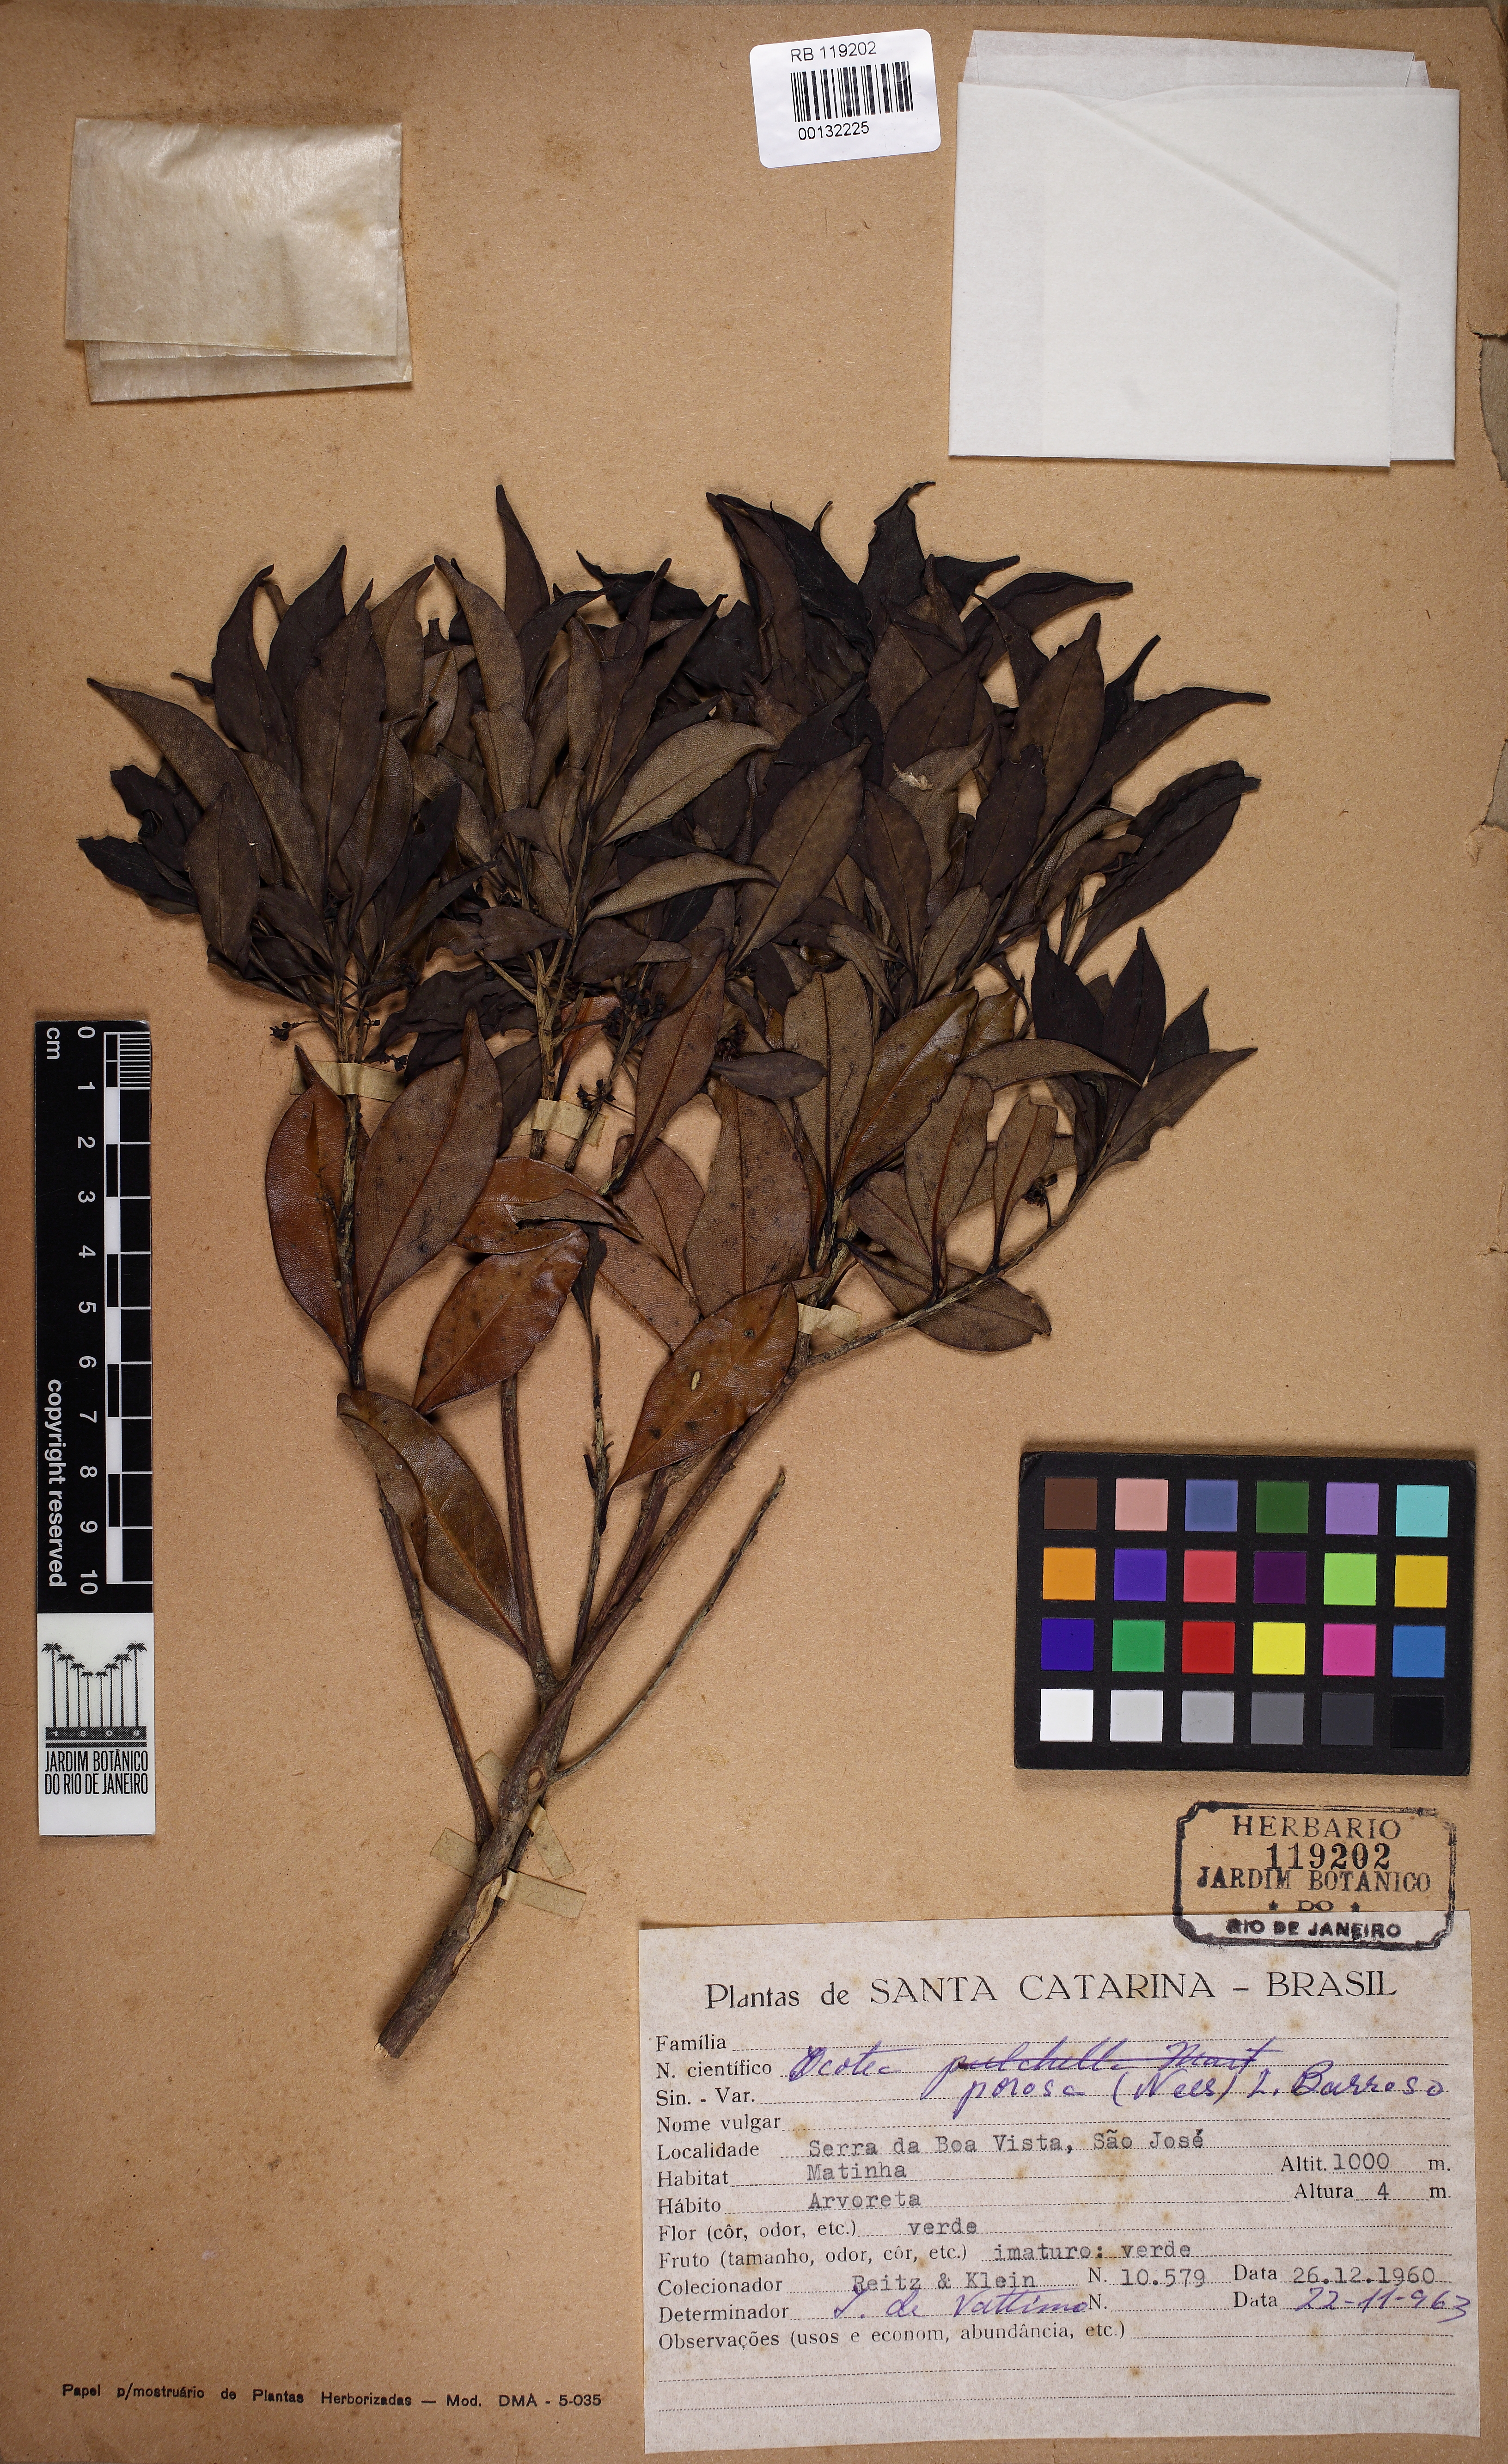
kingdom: Plantae
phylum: Tracheophyta
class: Magnoliopsida
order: Laurales
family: Lauraceae
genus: Ocotea
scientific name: Ocotea porosa
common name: Brazilian-walnut
